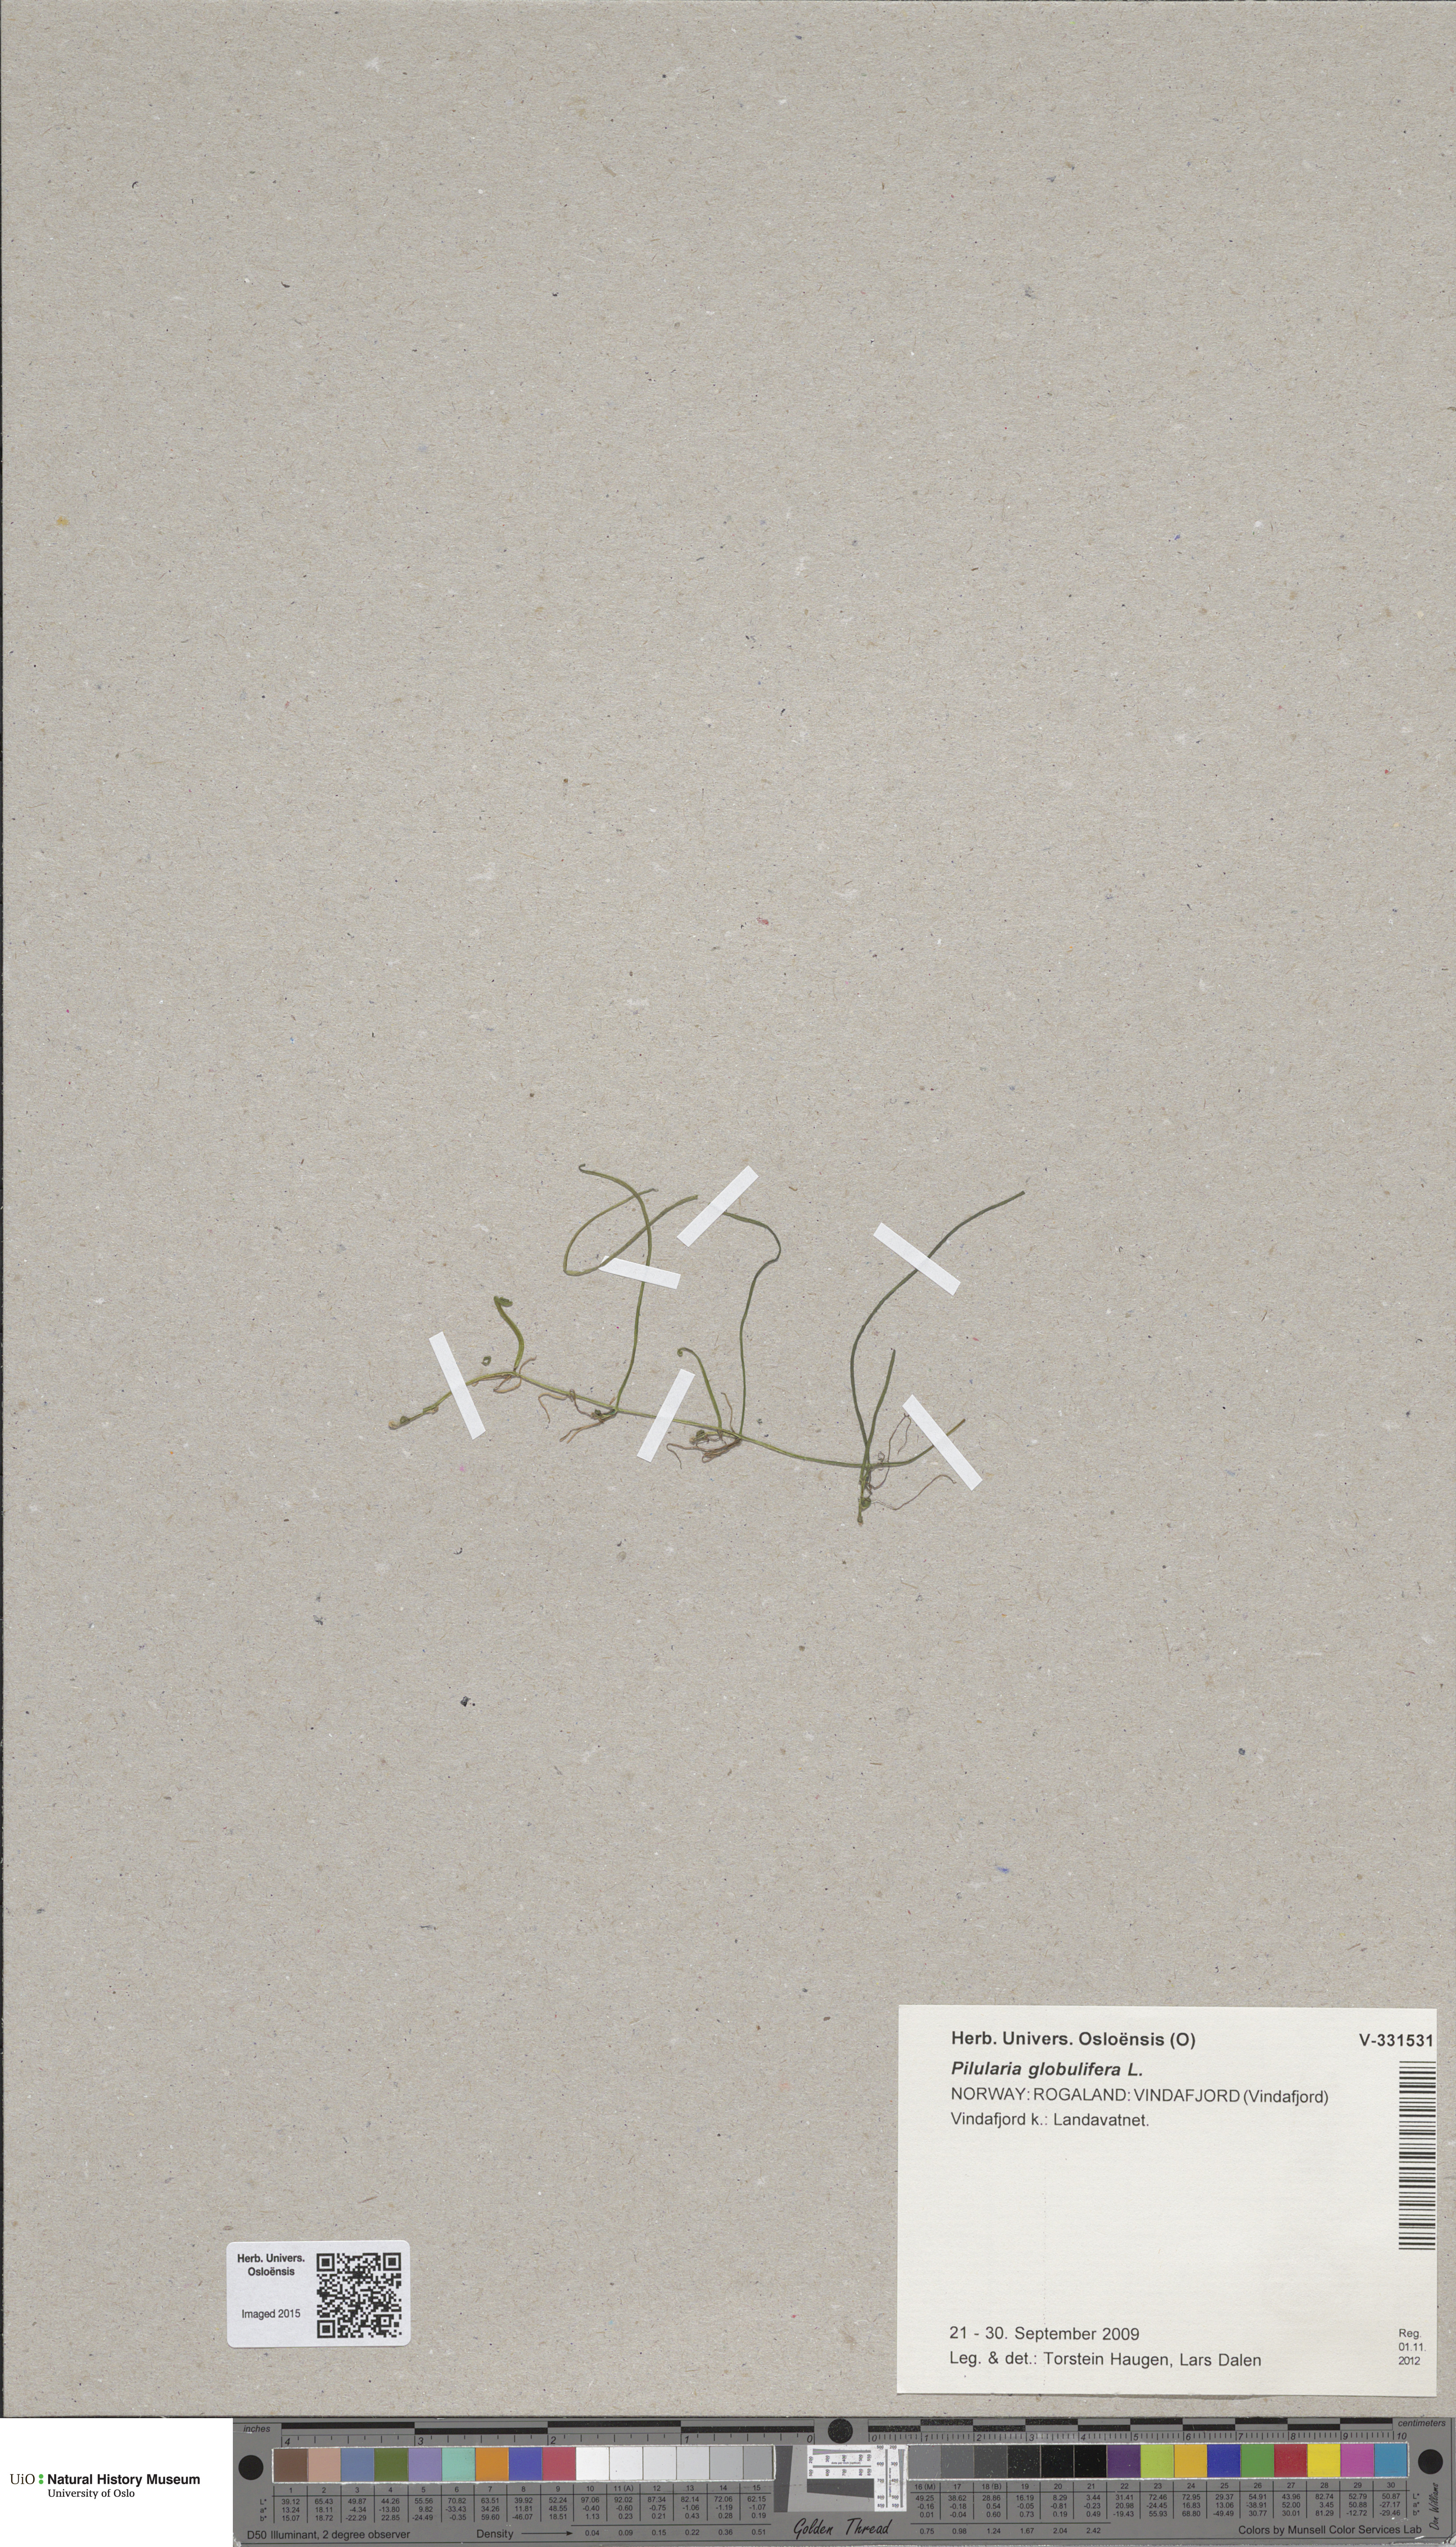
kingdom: Plantae
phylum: Tracheophyta
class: Polypodiopsida
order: Salviniales
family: Marsileaceae
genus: Pilularia
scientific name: Pilularia globulifera
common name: Pillwort
